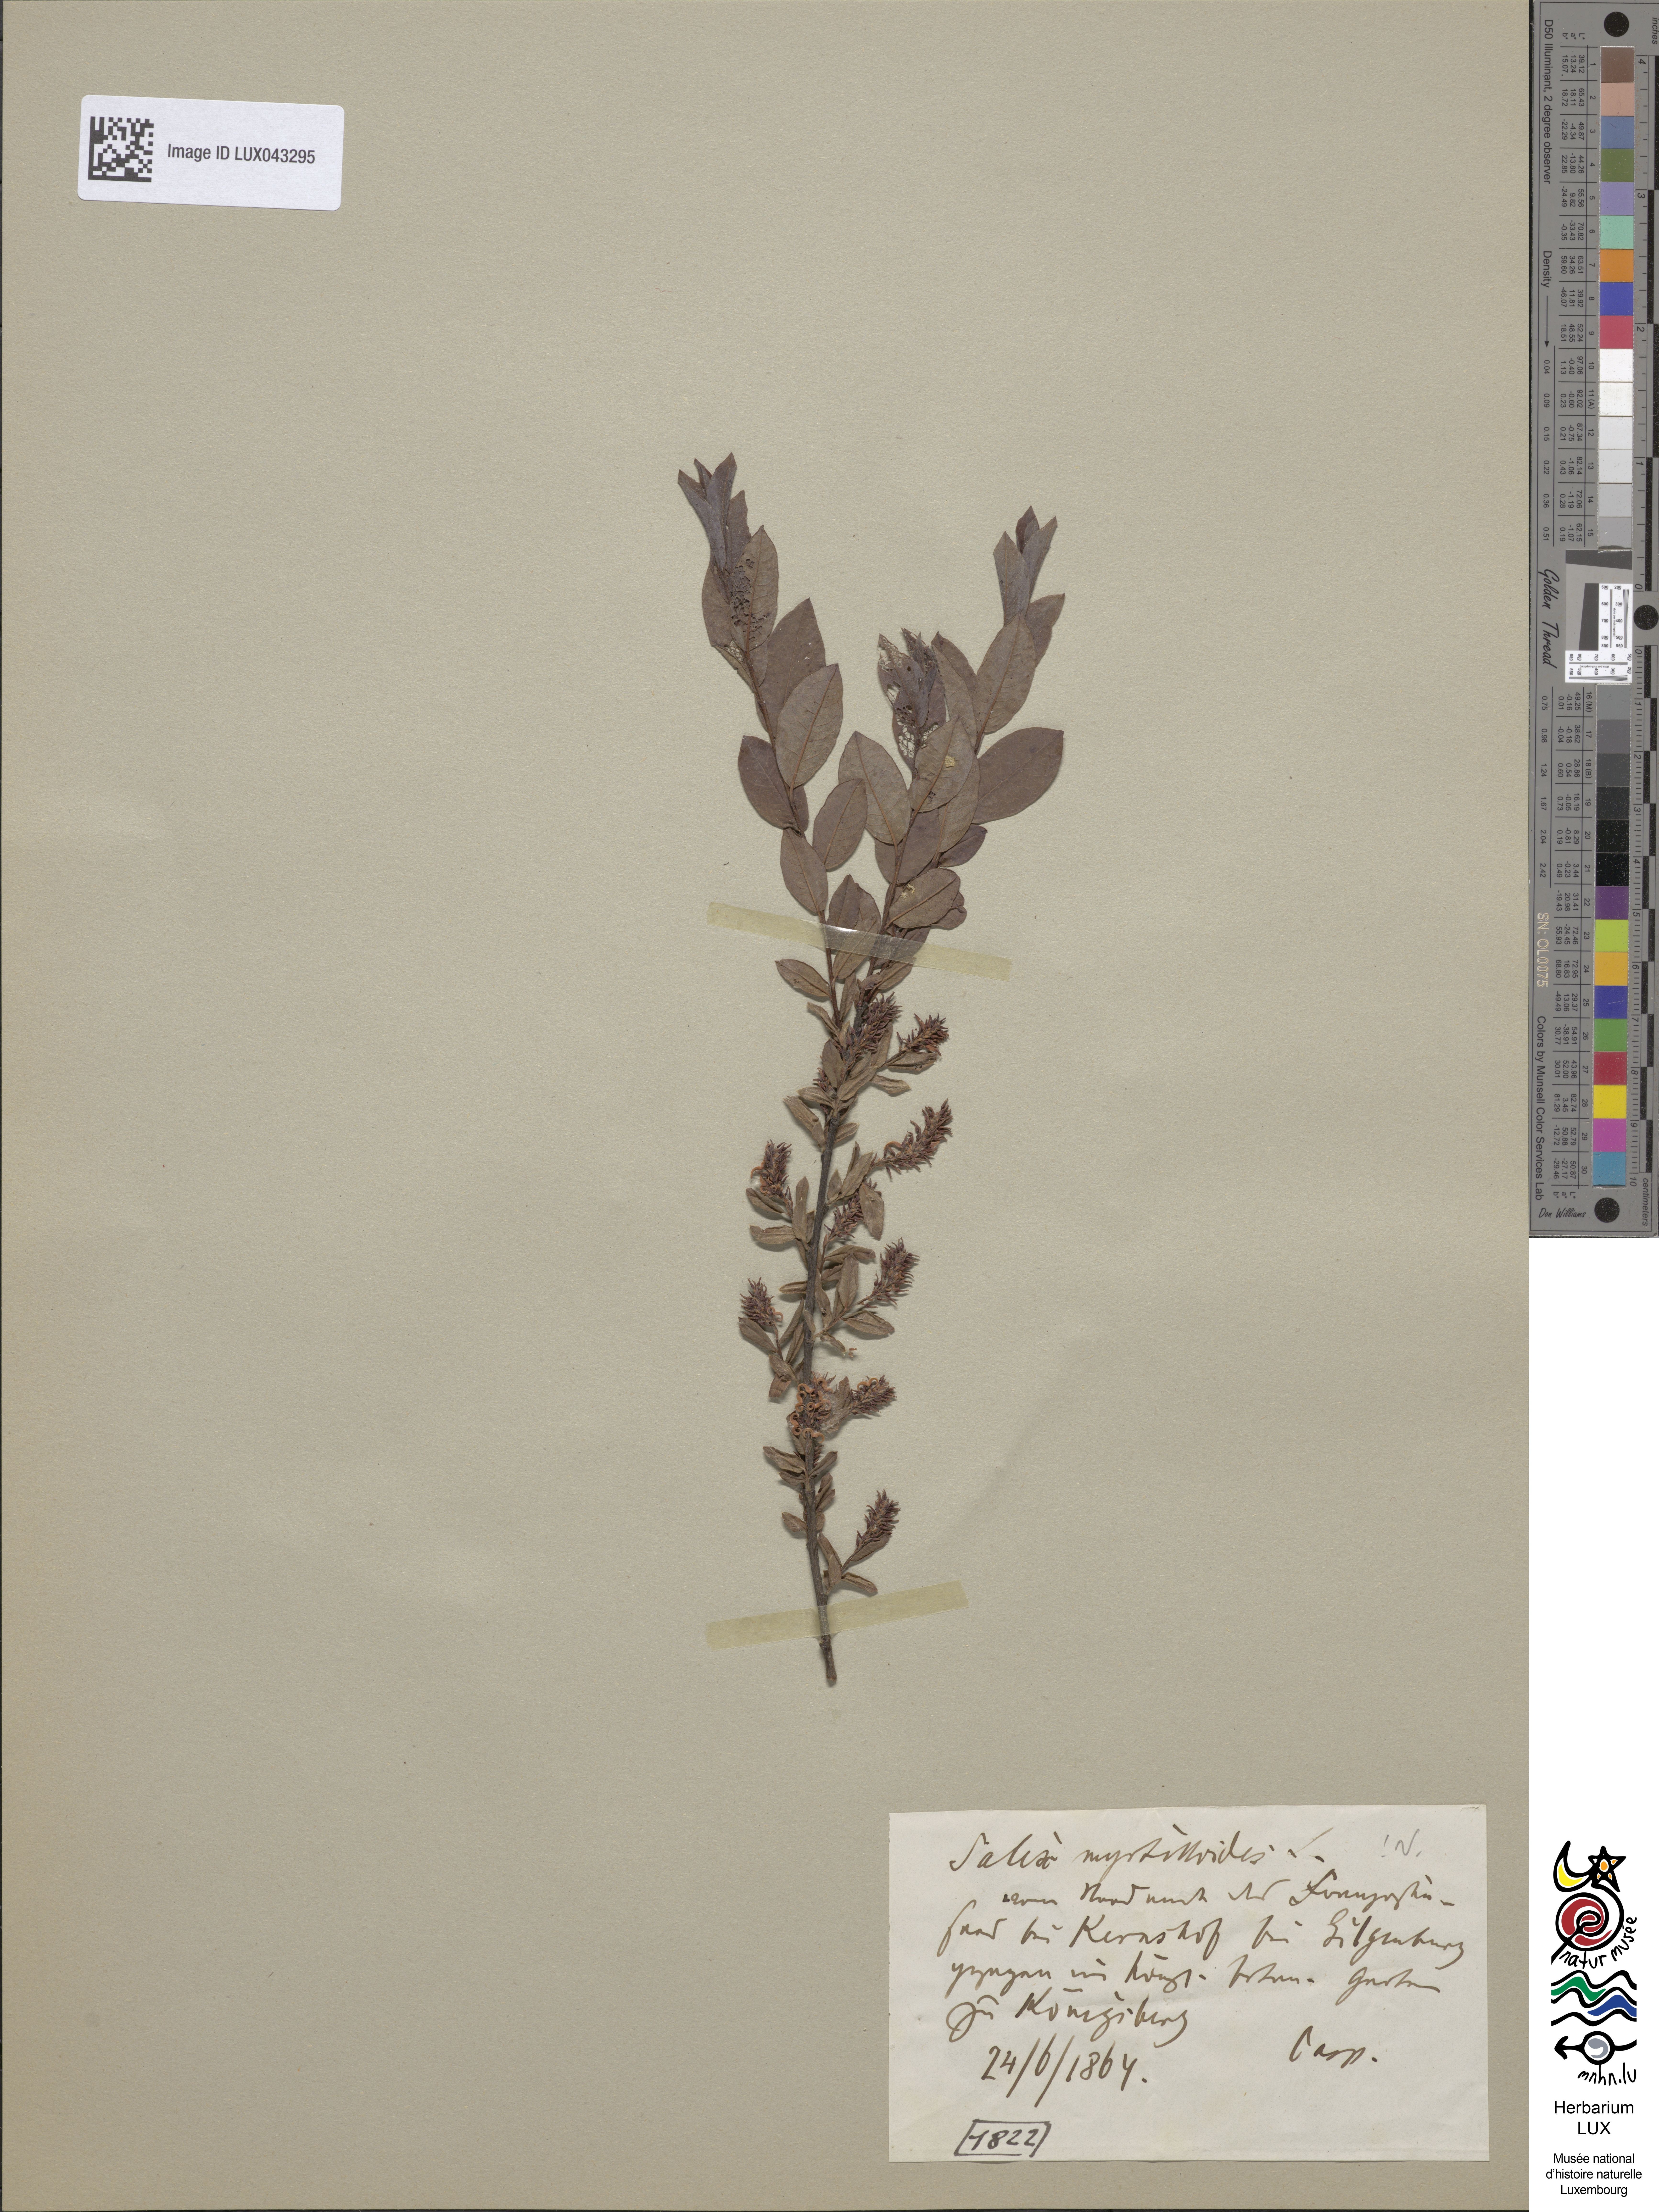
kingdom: Plantae
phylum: Tracheophyta
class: Magnoliopsida
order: Malpighiales
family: Salicaceae
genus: Salix
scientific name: Salix myrtilloides
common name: Myrtle-leaved willow
